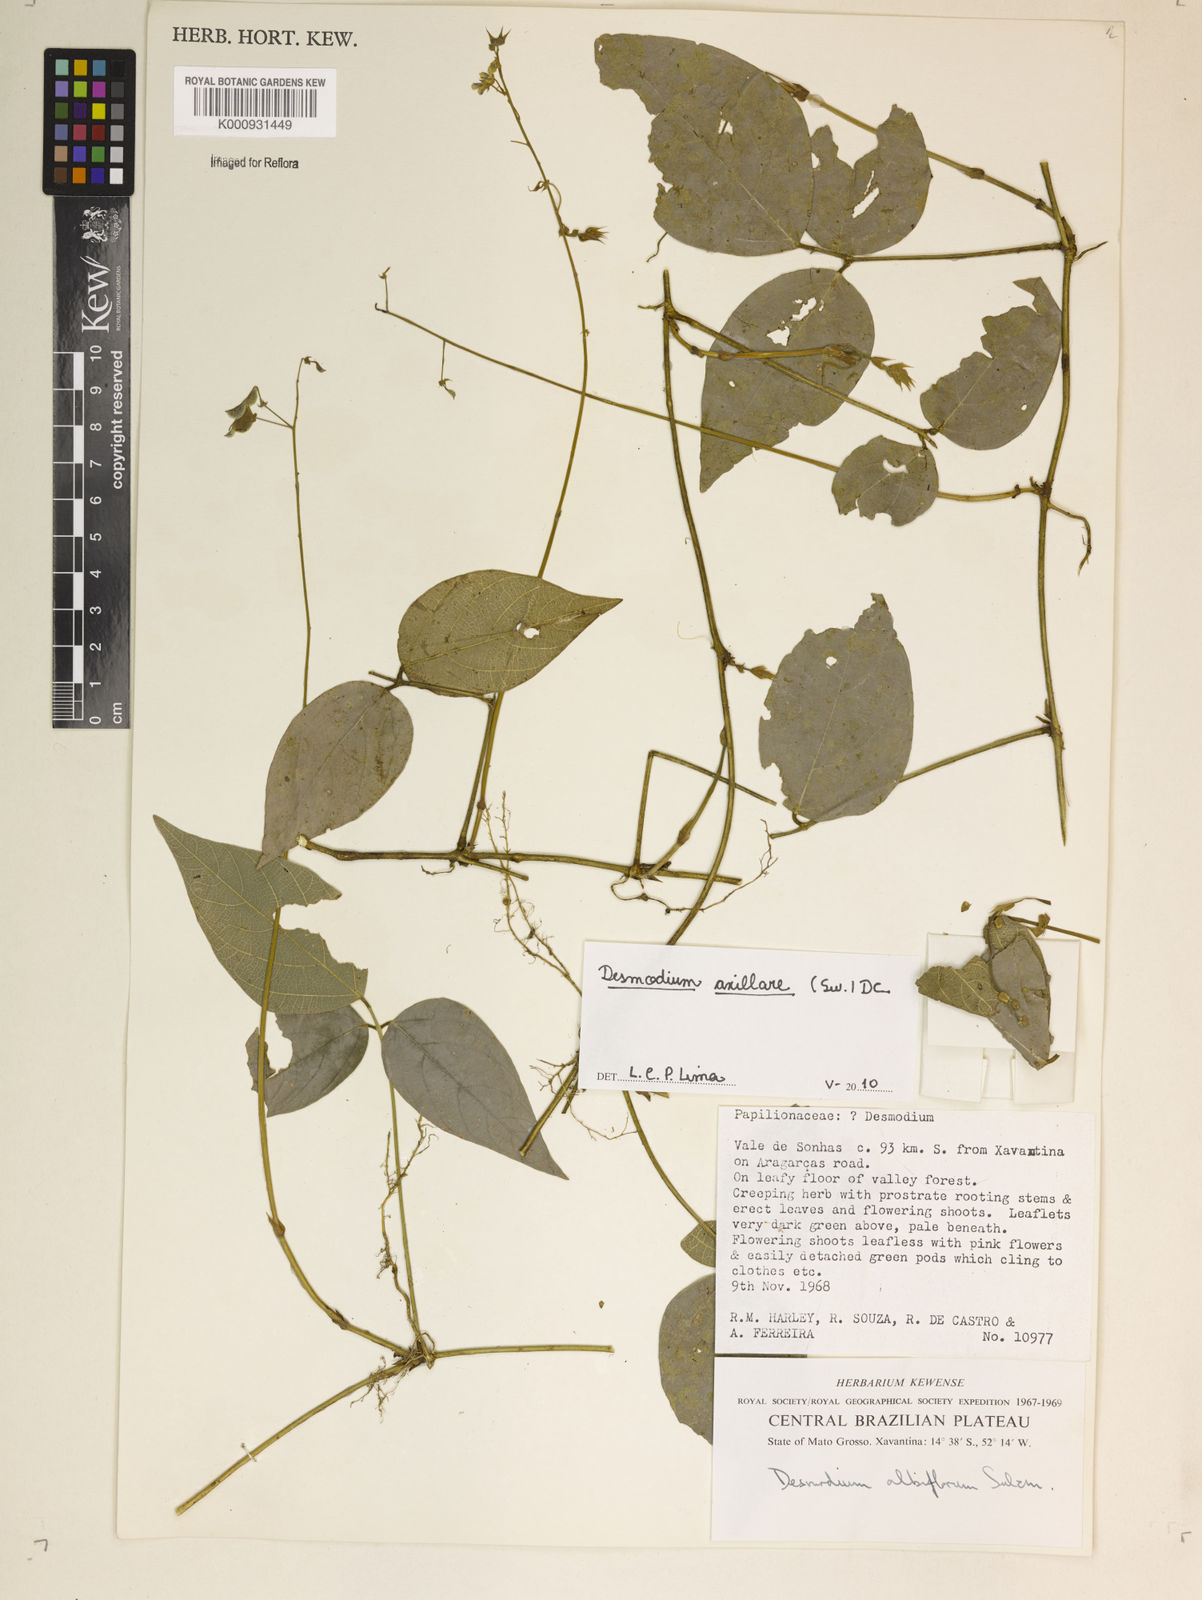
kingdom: Plantae
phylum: Tracheophyta
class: Magnoliopsida
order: Fabales
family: Fabaceae
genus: Desmodium
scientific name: Desmodium axillare
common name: Wire with
